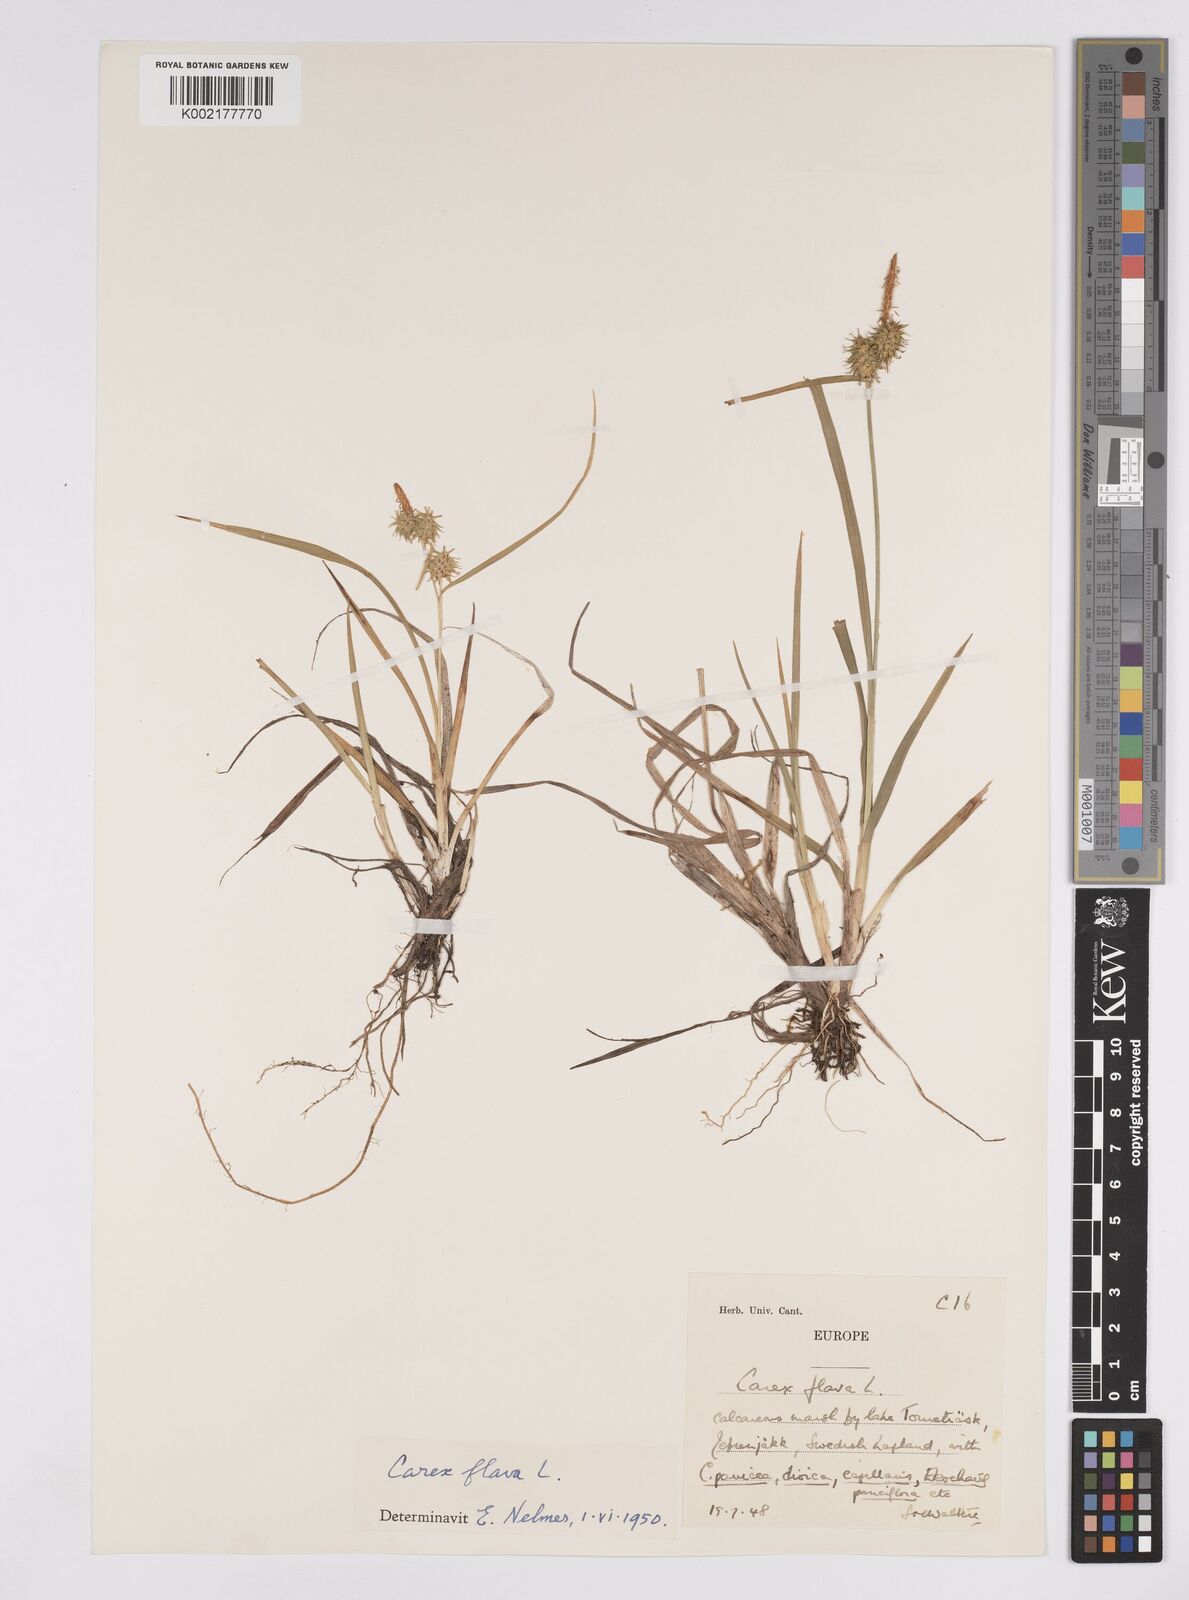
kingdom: Plantae
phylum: Tracheophyta
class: Liliopsida
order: Poales
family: Cyperaceae
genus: Carex
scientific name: Carex flava
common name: Large yellow-sedge
